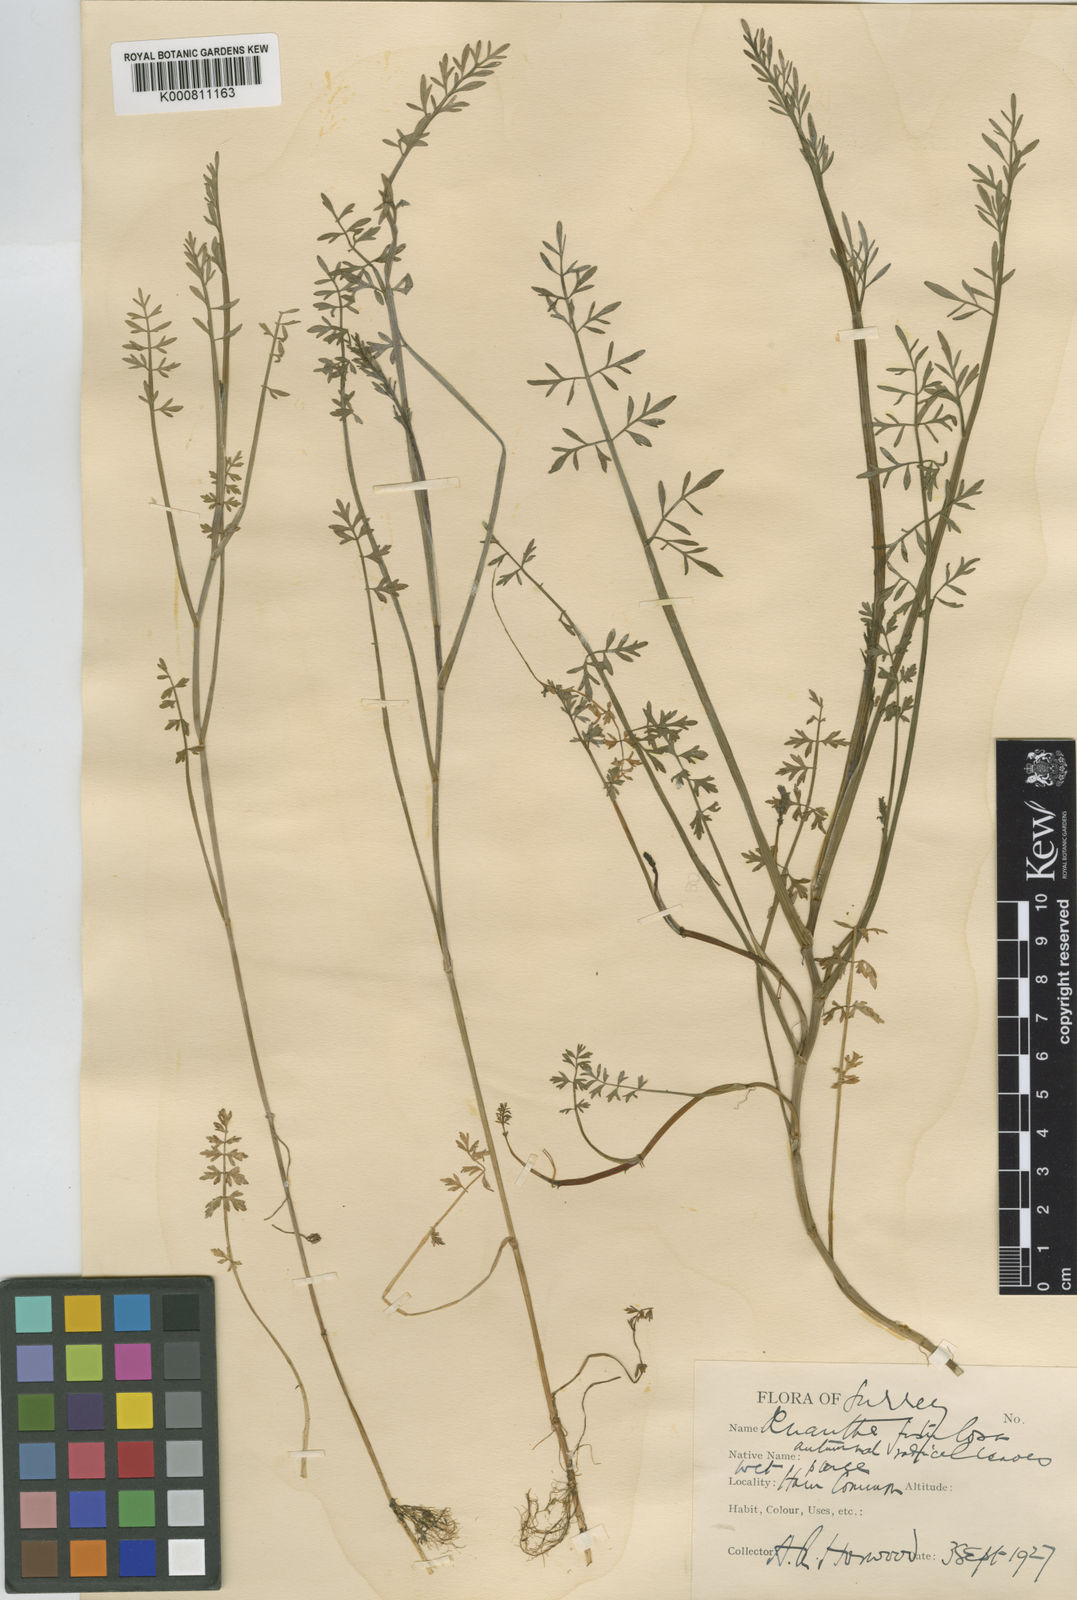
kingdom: Plantae
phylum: Tracheophyta
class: Magnoliopsida
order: Apiales
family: Apiaceae
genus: Oenanthe
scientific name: Oenanthe fistulosa
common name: Tubular water-dropwort
